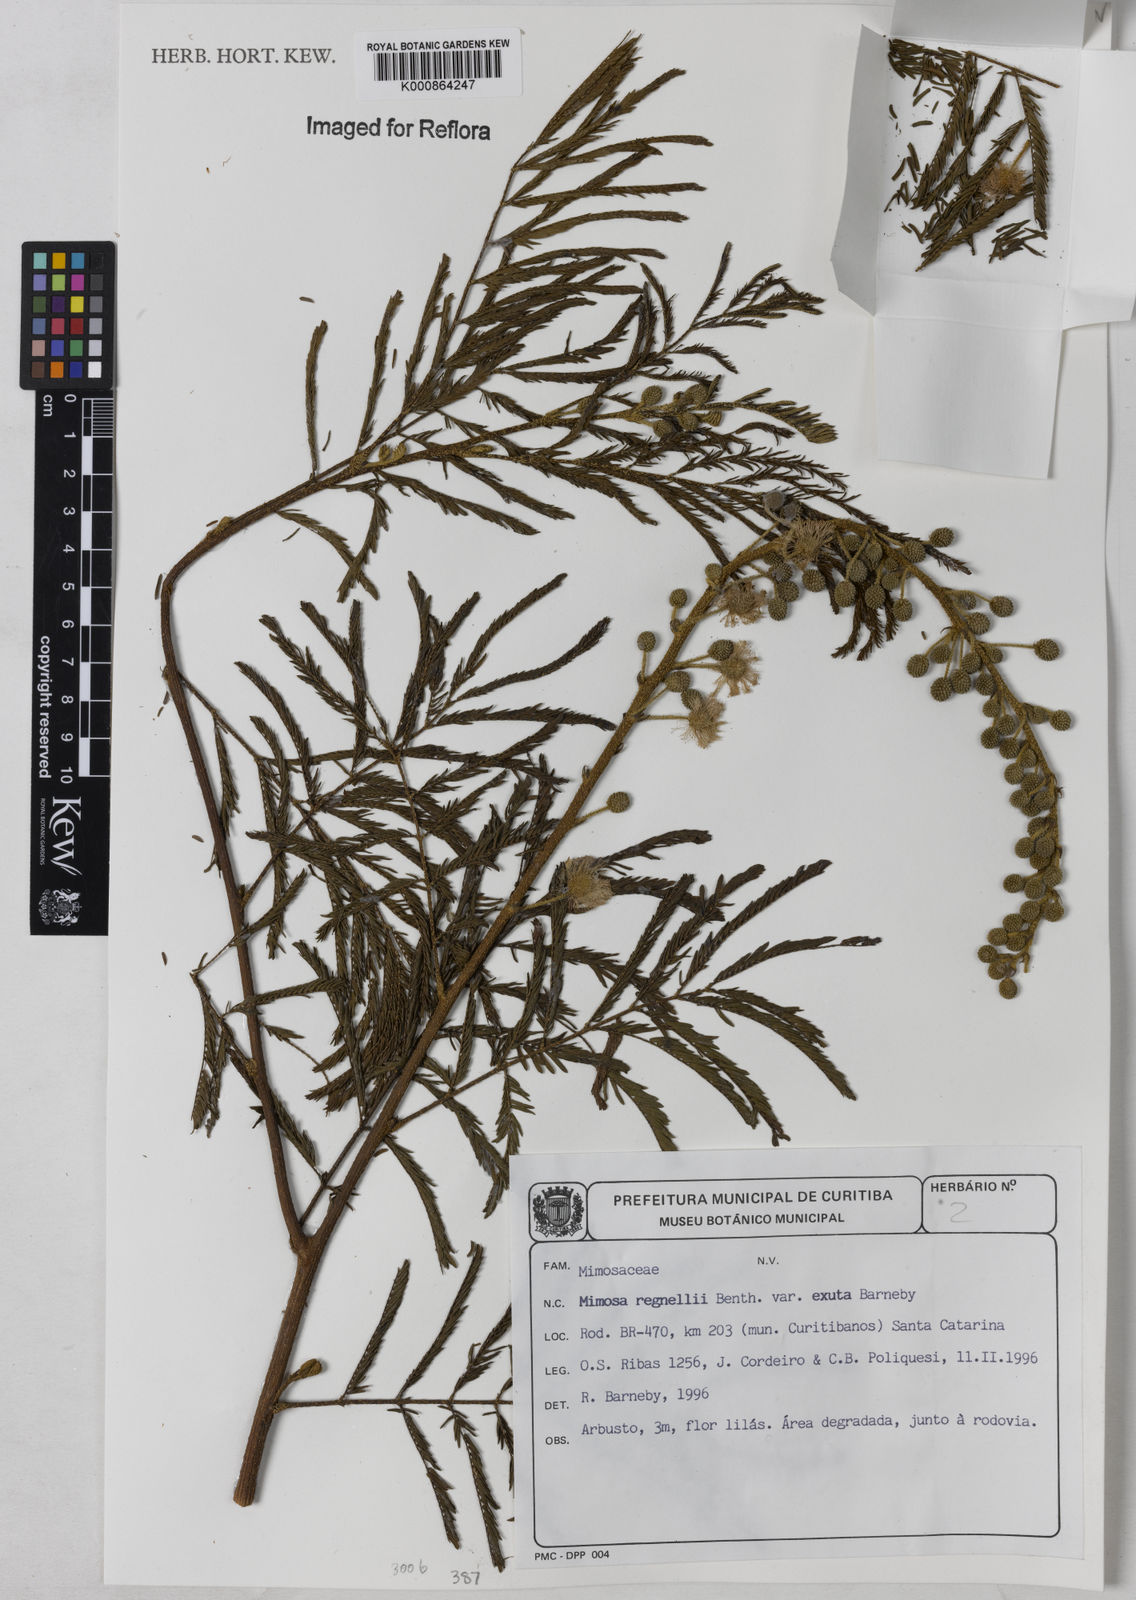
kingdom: Plantae
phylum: Tracheophyta
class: Magnoliopsida
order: Fabales
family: Fabaceae
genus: Mimosa
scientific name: Mimosa regnellii
